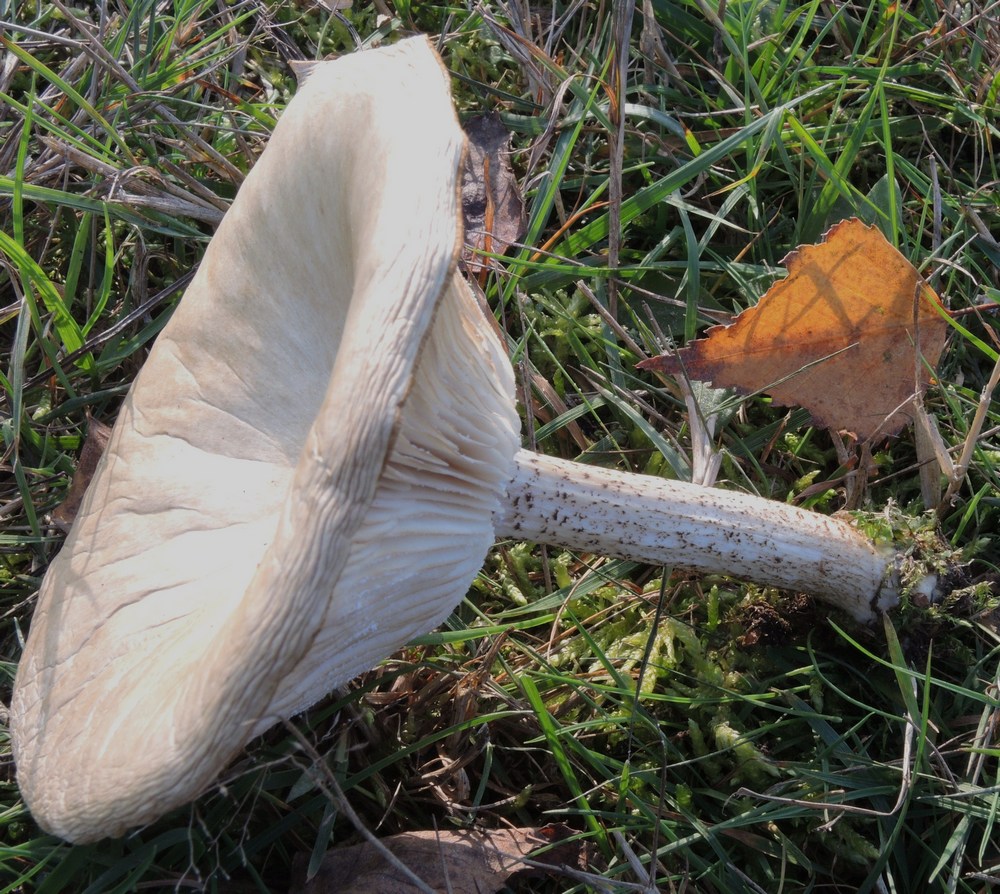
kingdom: Fungi
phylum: Basidiomycota
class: Agaricomycetes
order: Agaricales
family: Tricholomataceae
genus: Melanoleuca
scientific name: Melanoleuca verrucipes
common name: rufodet munkehat
